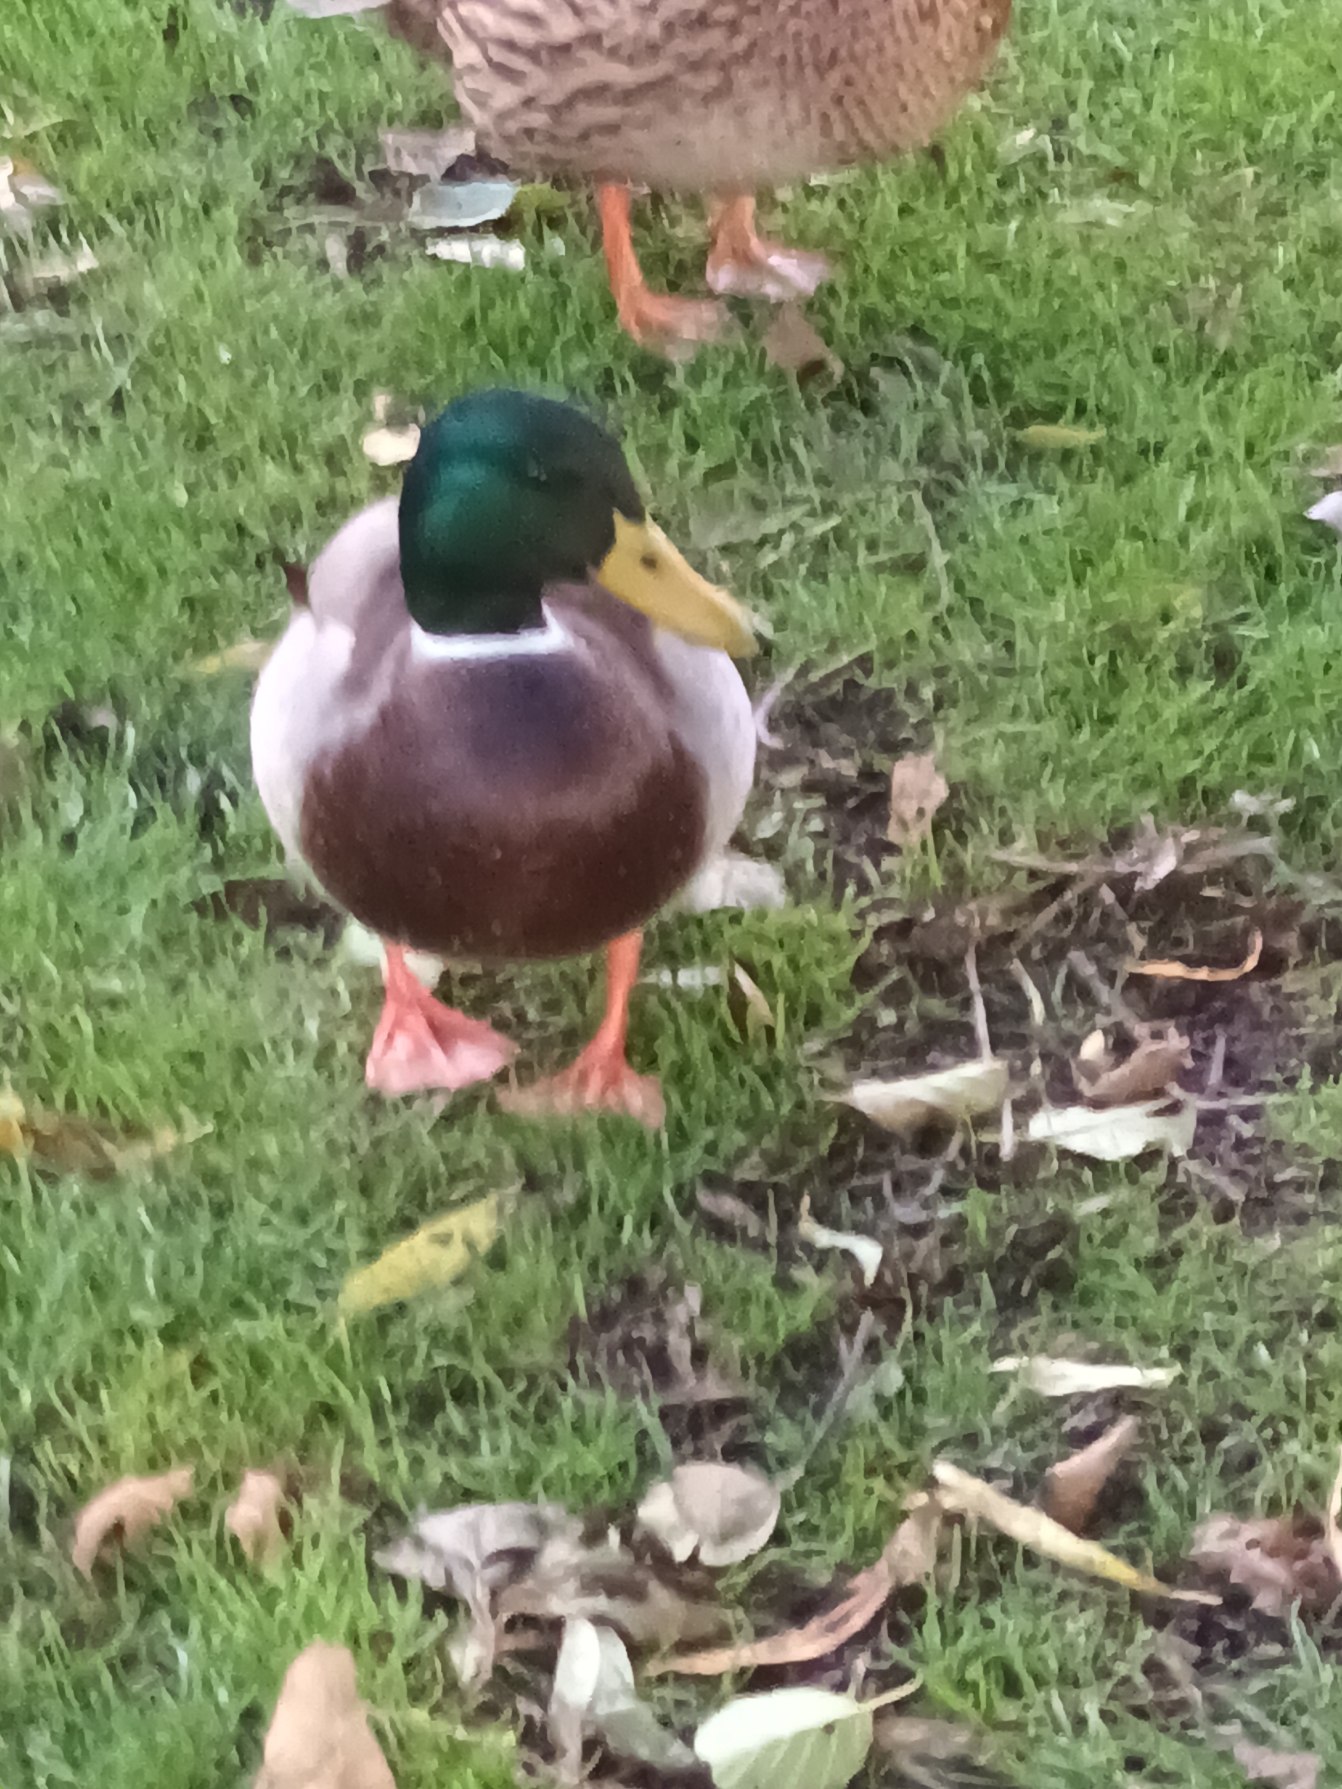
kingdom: Animalia
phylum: Chordata
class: Aves
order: Anseriformes
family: Anatidae
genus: Anas
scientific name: Anas platyrhynchos
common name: Gråand
